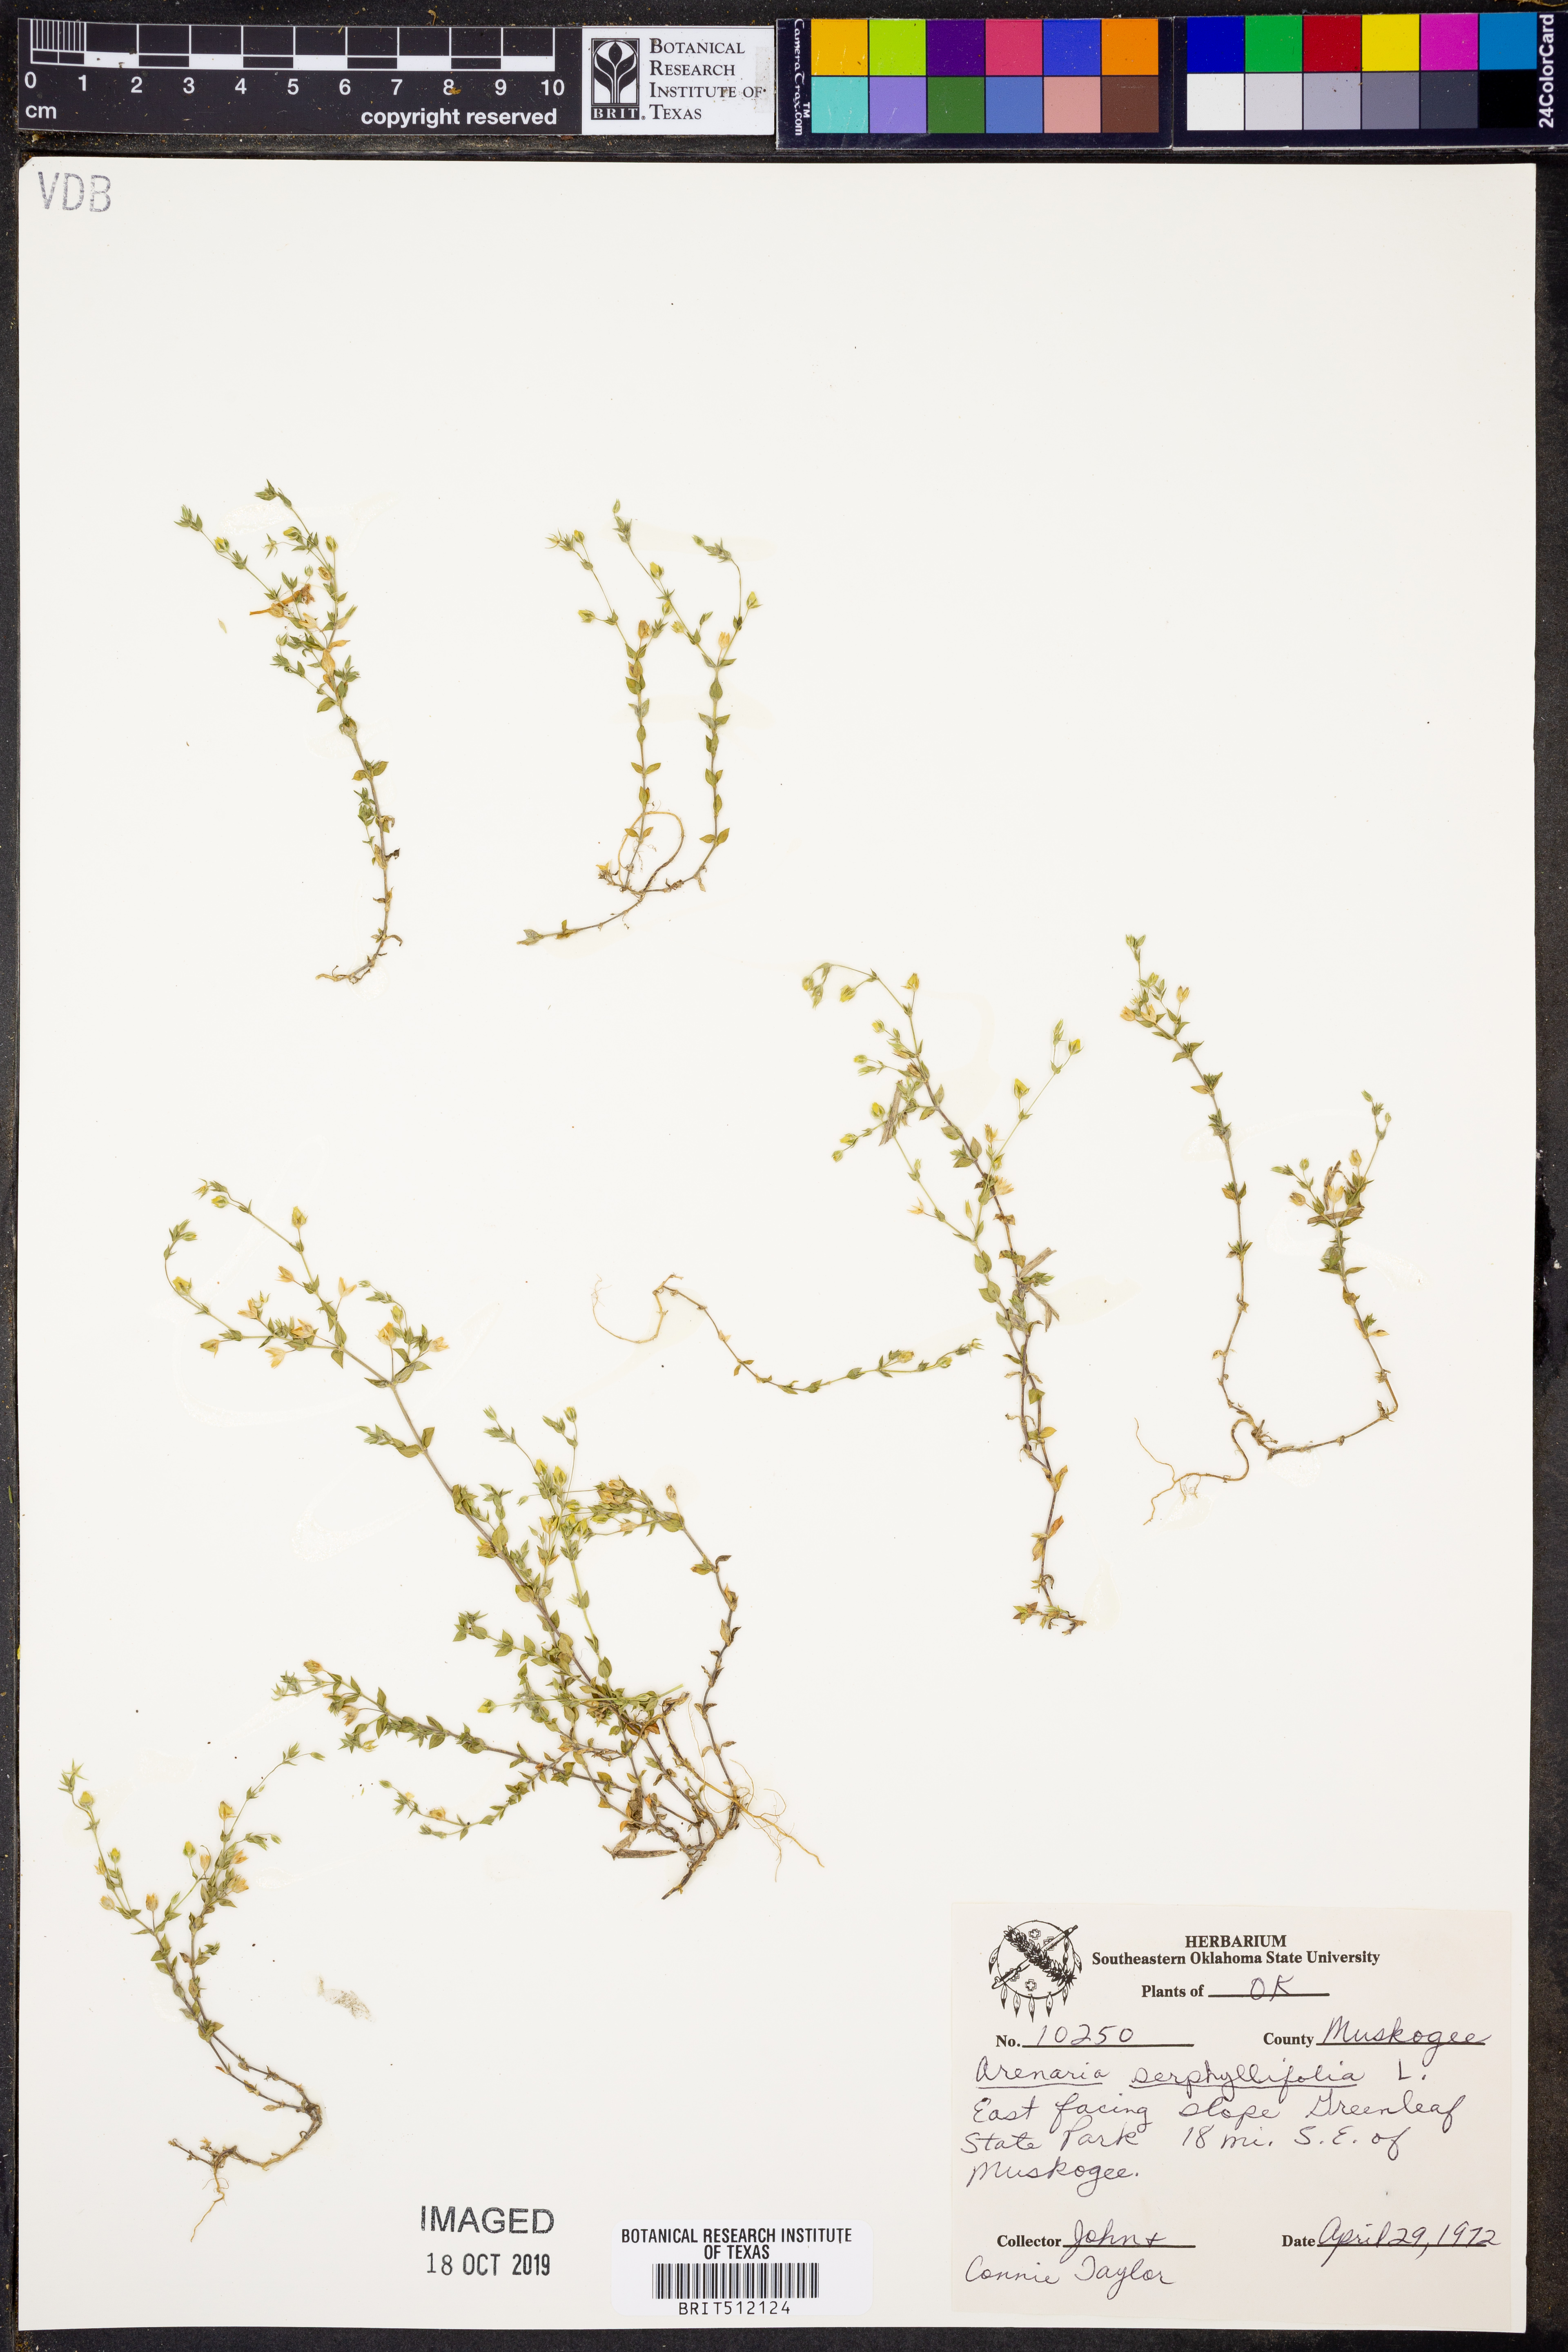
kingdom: Plantae
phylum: Tracheophyta
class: Magnoliopsida
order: Caryophyllales
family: Caryophyllaceae
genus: Arenaria
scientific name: Arenaria serpyllifolia
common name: Thyme-leaved sandwort
